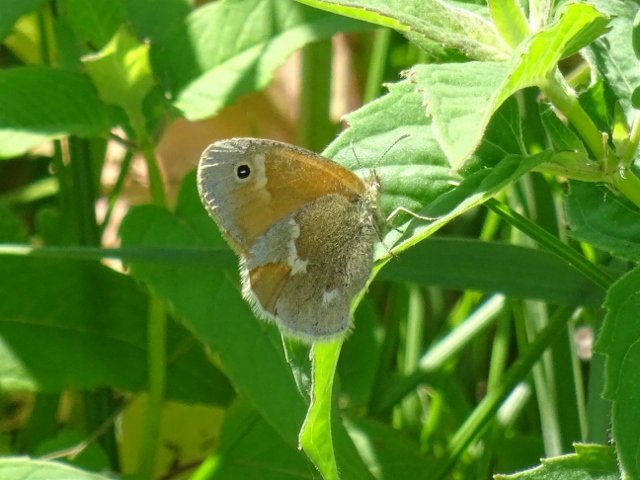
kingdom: Animalia
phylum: Arthropoda
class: Insecta
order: Lepidoptera
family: Nymphalidae
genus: Coenonympha
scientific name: Coenonympha tullia
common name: Large Heath
